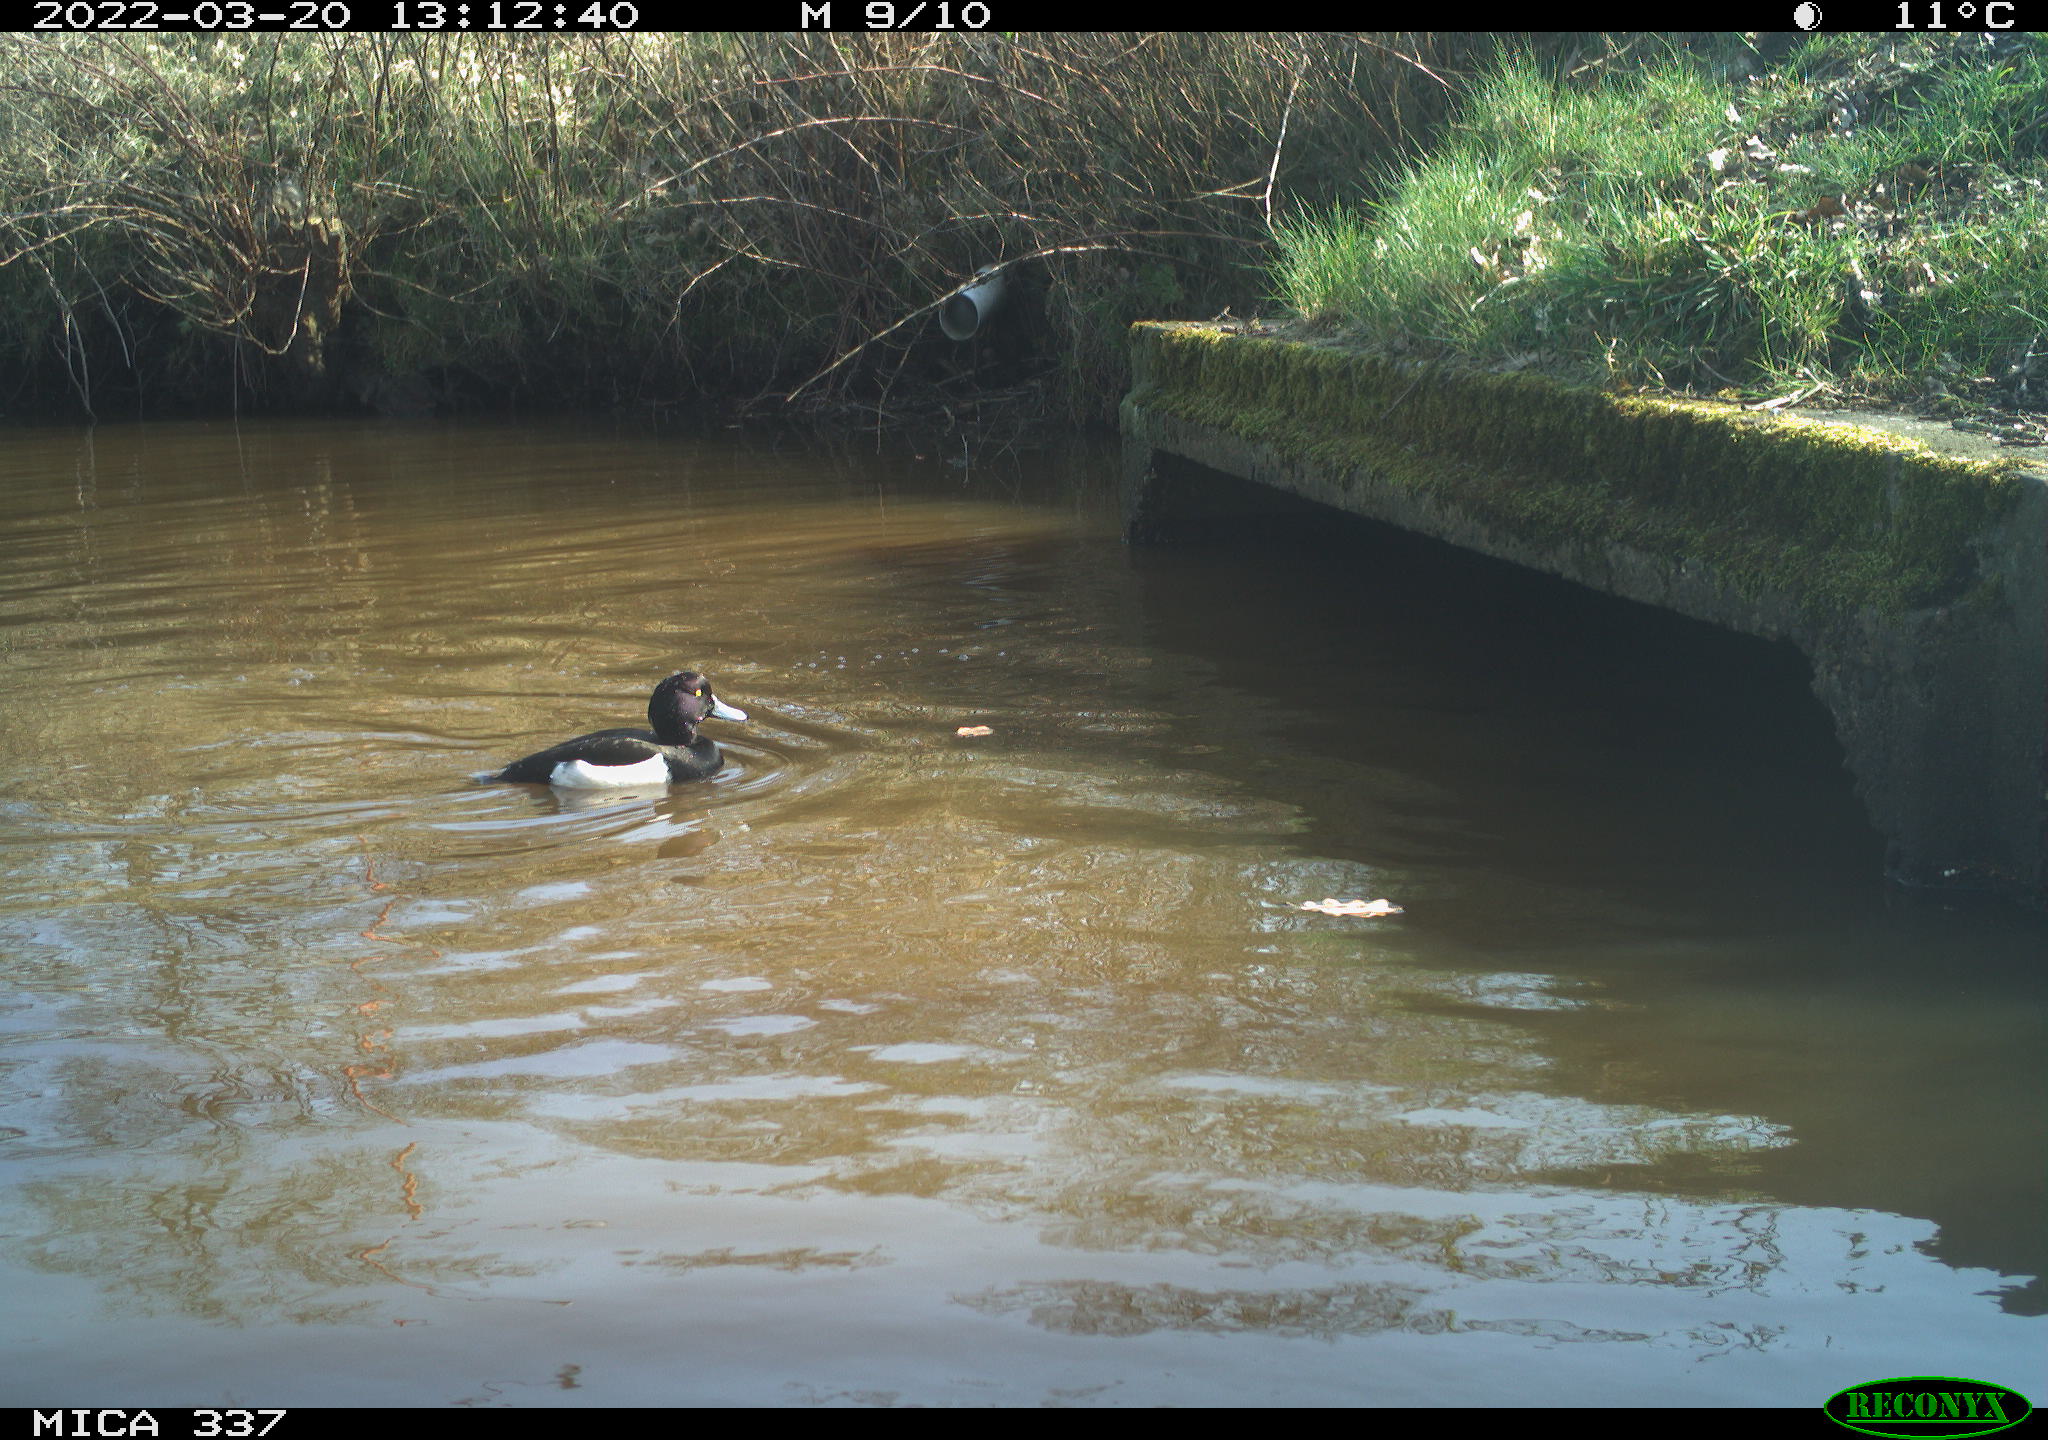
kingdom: Animalia
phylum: Chordata
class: Aves
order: Anseriformes
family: Anatidae
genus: Aythya
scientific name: Aythya fuligula
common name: Tufted duck
